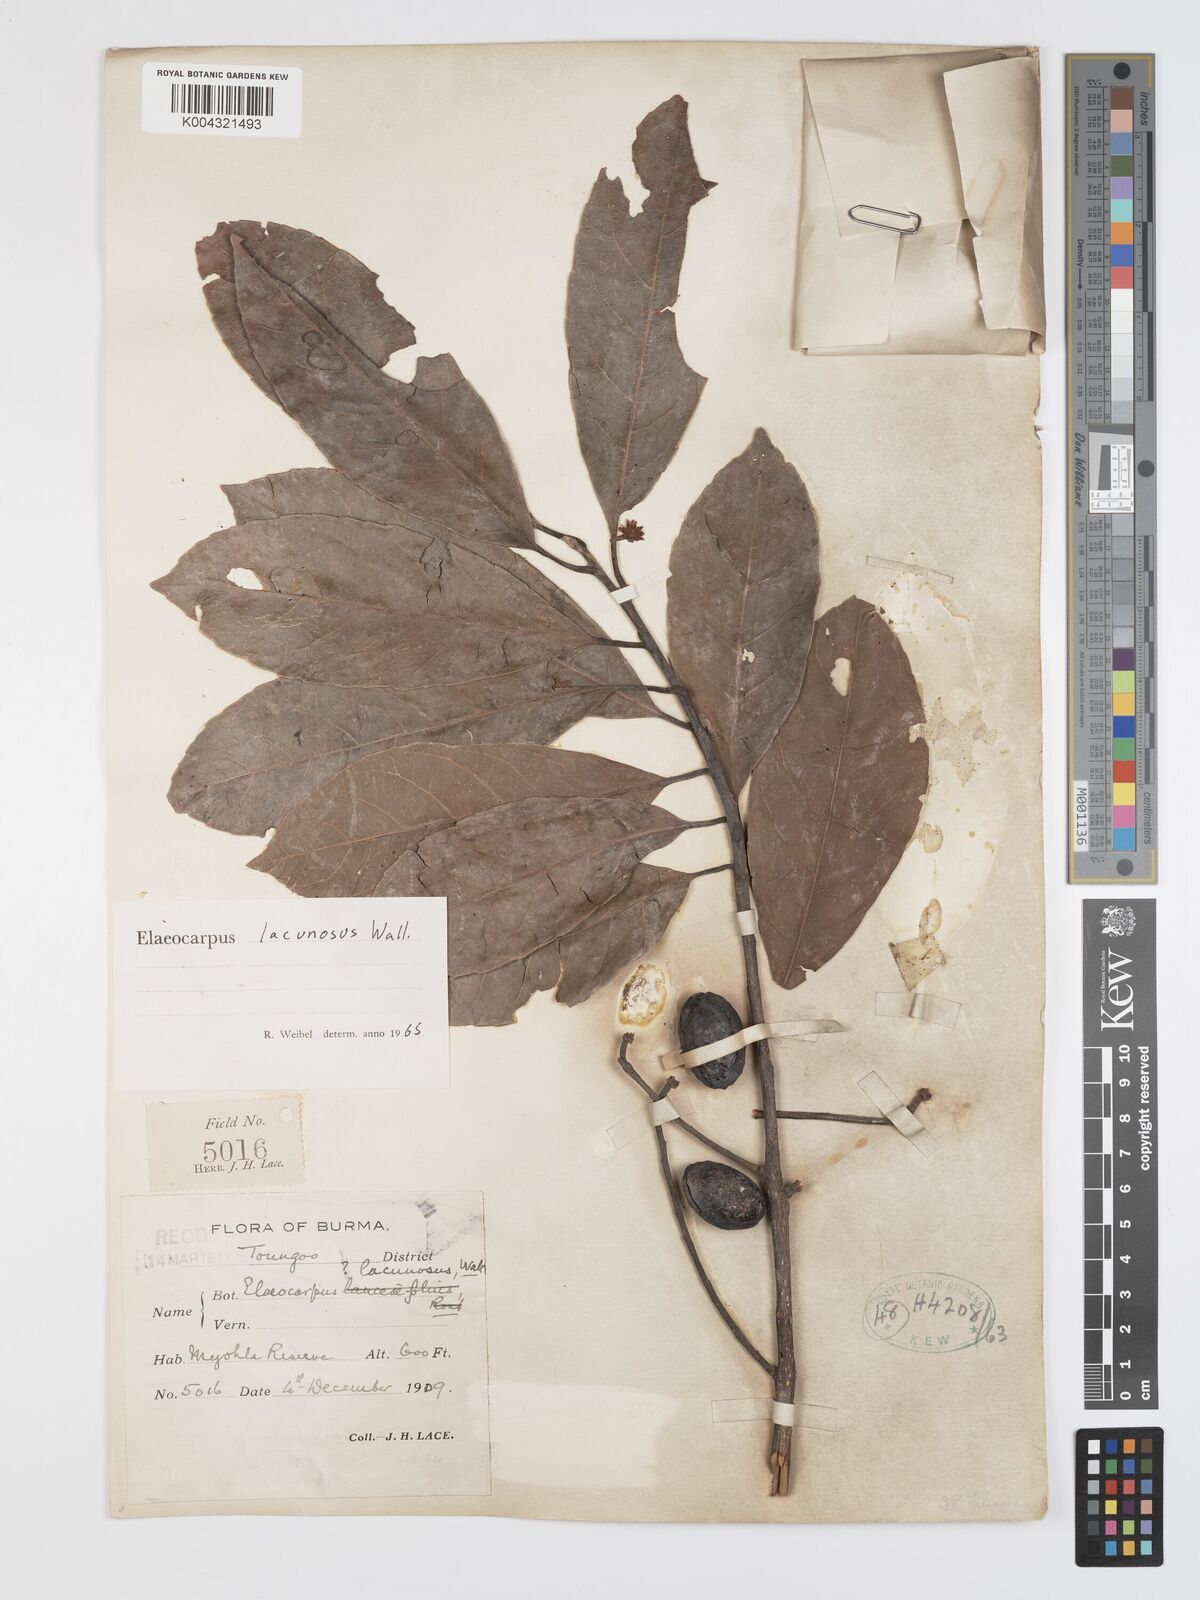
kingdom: Plantae
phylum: Tracheophyta
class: Magnoliopsida
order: Oxalidales
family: Elaeocarpaceae
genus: Elaeocarpus
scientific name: Elaeocarpus lanceifolius
